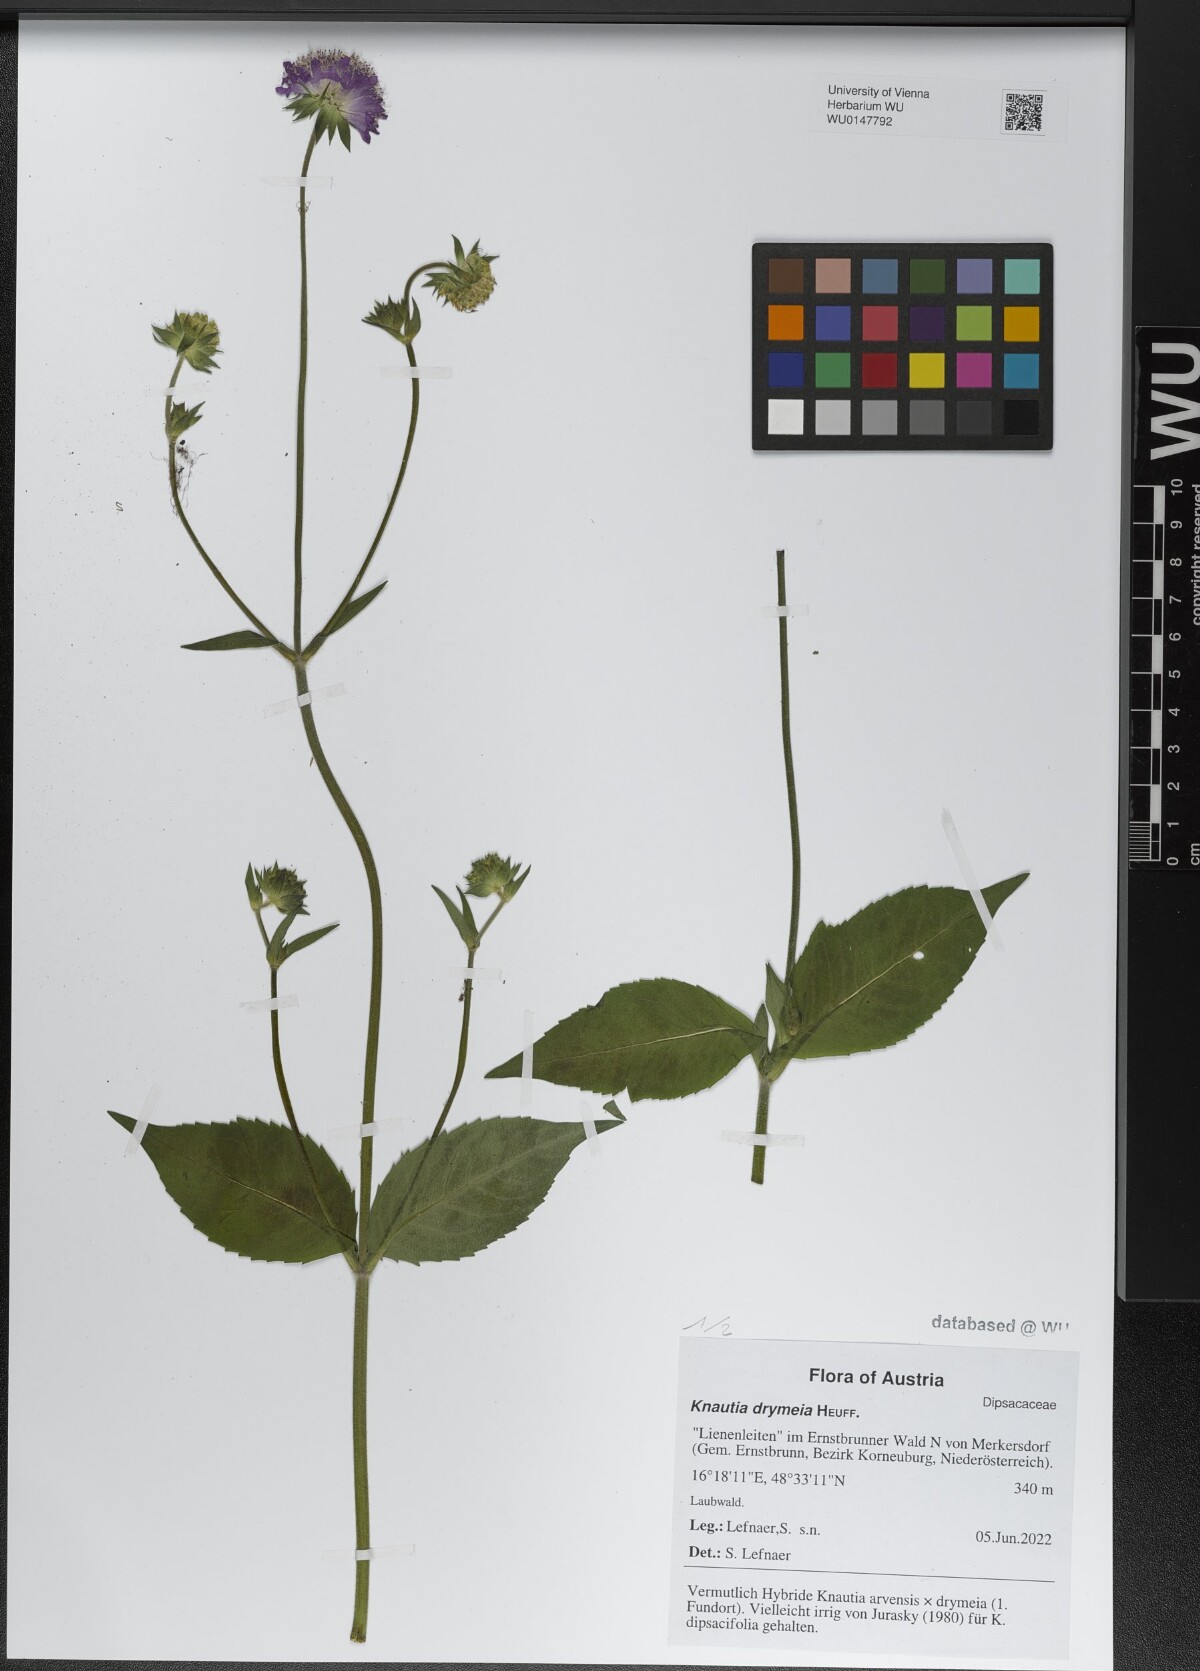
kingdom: Plantae
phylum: Tracheophyta
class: Magnoliopsida
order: Dipsacales
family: Caprifoliaceae
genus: Knautia
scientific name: Knautia drymeia
